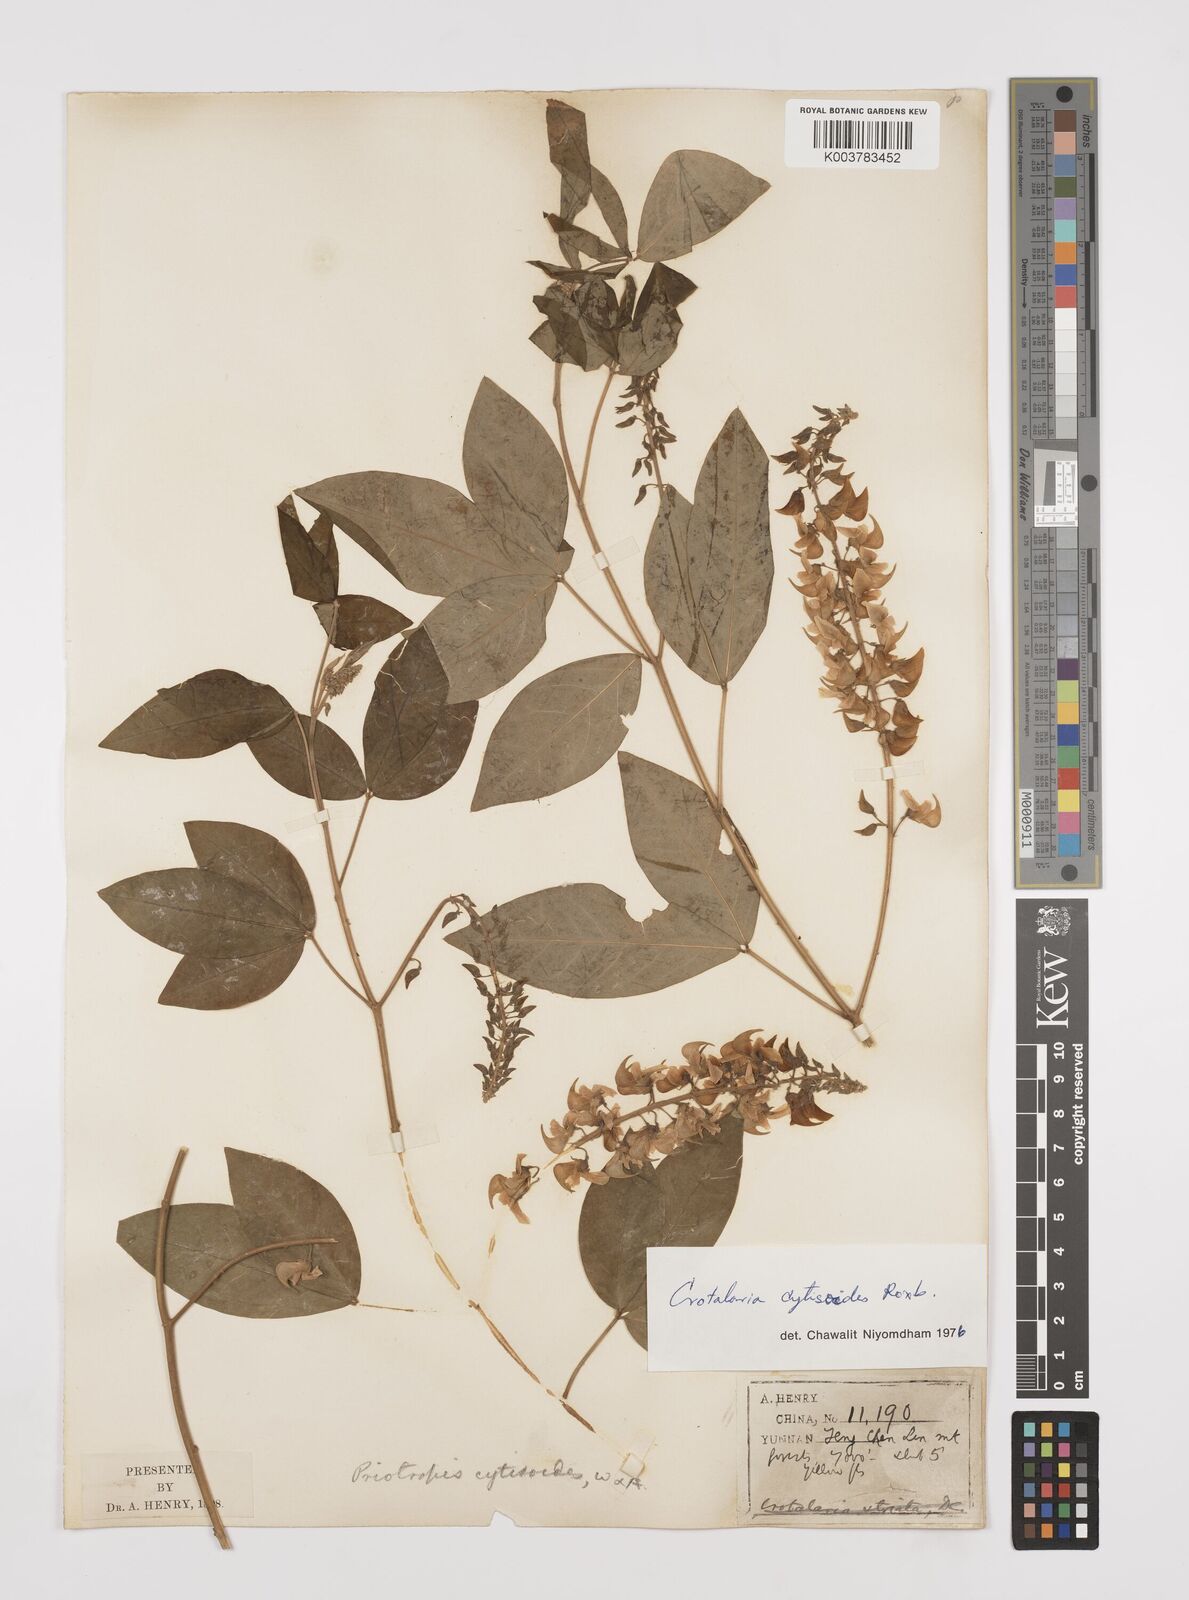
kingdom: Plantae
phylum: Tracheophyta
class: Magnoliopsida
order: Fabales
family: Fabaceae
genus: Crotalaria
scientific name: Crotalaria cytisoides
